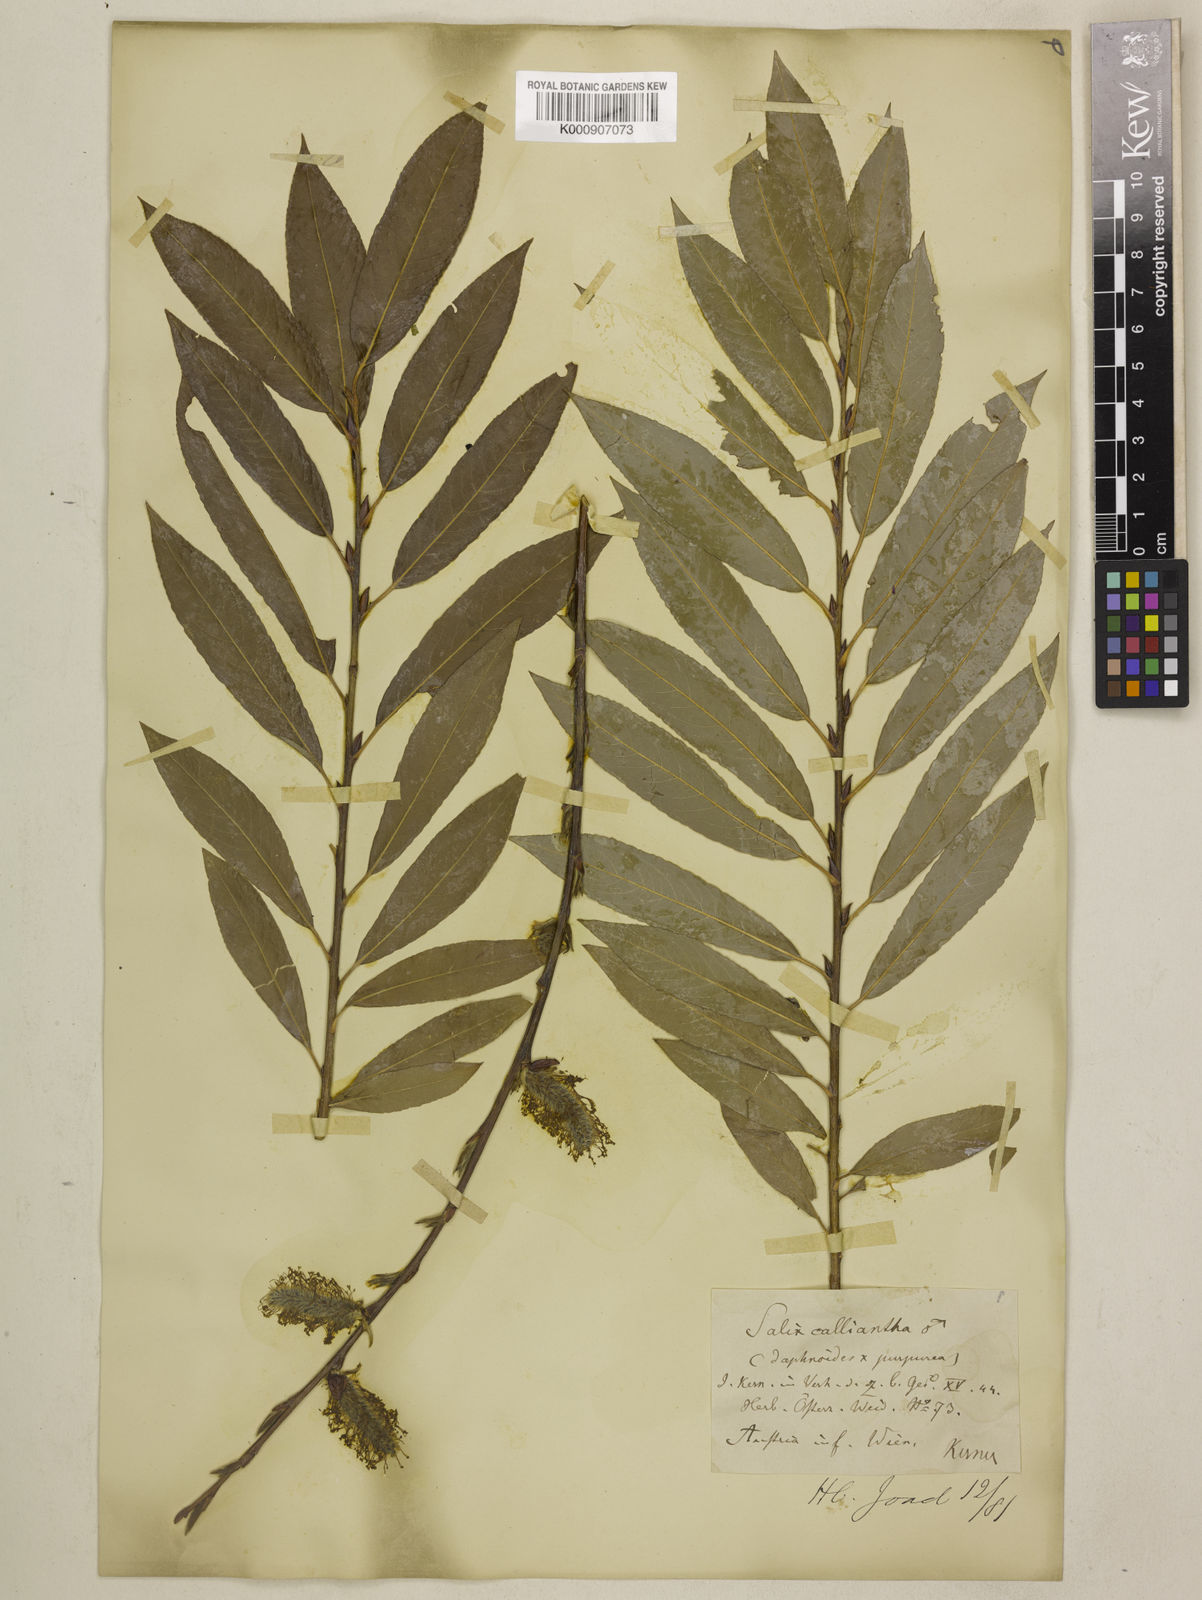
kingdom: Plantae
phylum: Tracheophyta
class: Magnoliopsida
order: Malpighiales
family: Salicaceae
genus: Salix
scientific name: Salix daphnoides
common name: European violet-willow
